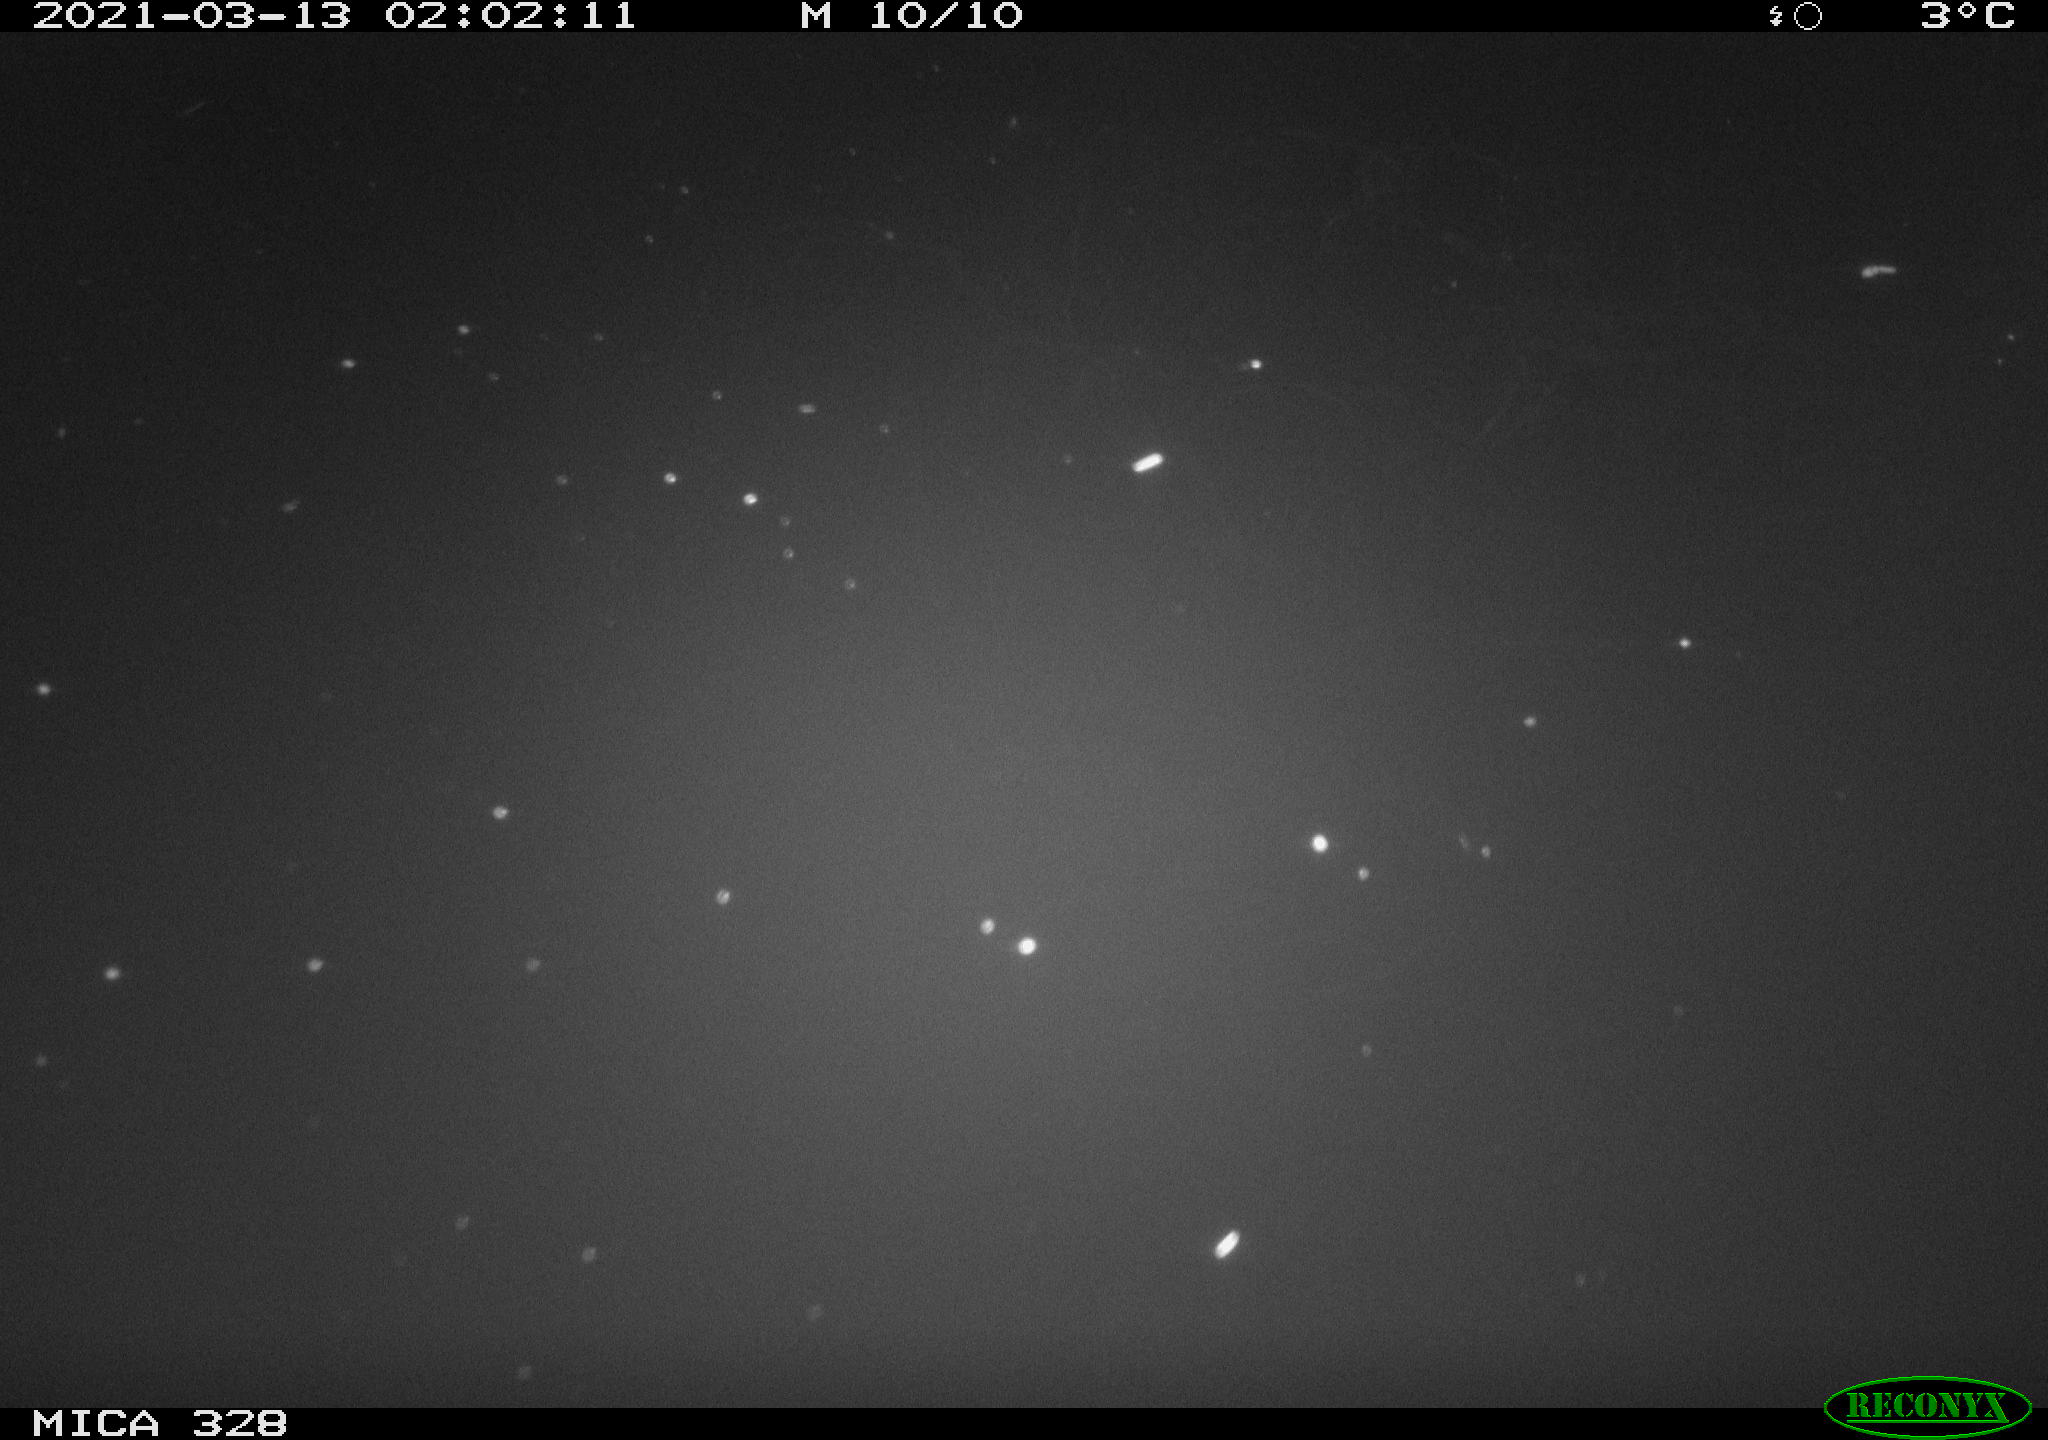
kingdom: Animalia
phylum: Chordata
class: Mammalia
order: Rodentia
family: Cricetidae
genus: Ondatra
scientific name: Ondatra zibethicus
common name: Muskrat
